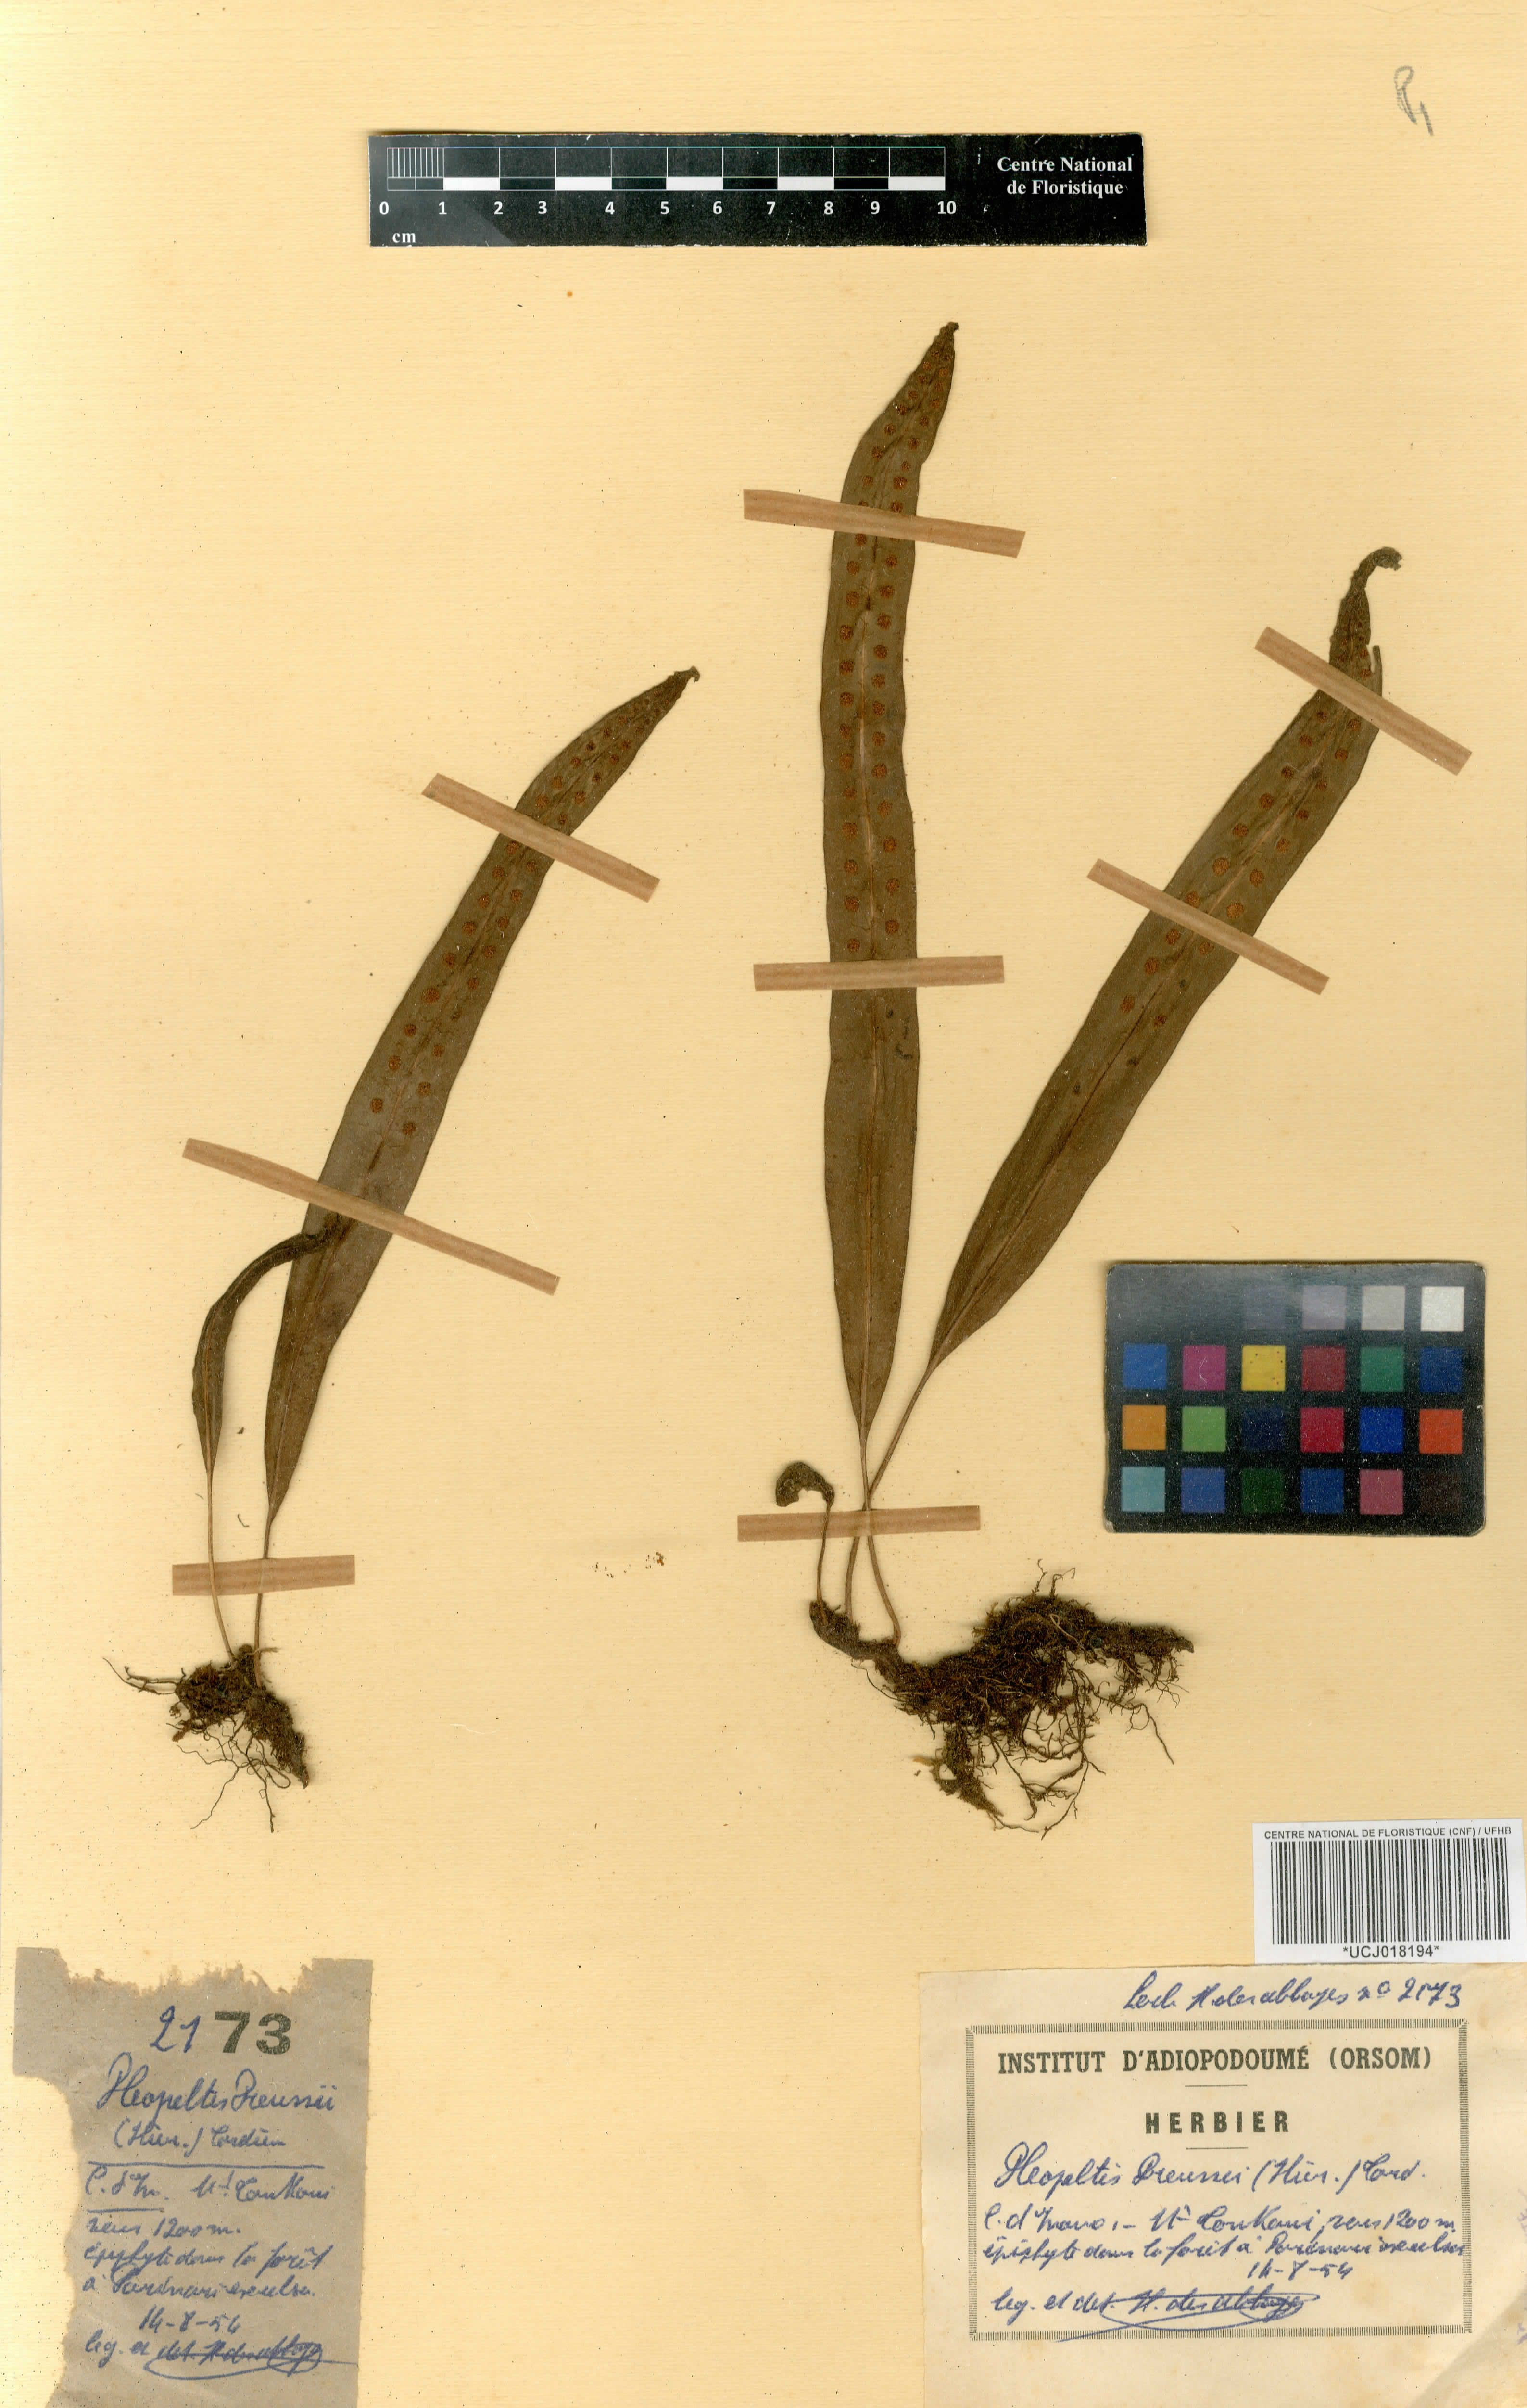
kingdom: Plantae
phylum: Tracheophyta
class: Polypodiopsida
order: Polypodiales
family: Polypodiaceae
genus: Lepisorus
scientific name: Lepisorus excavatus
